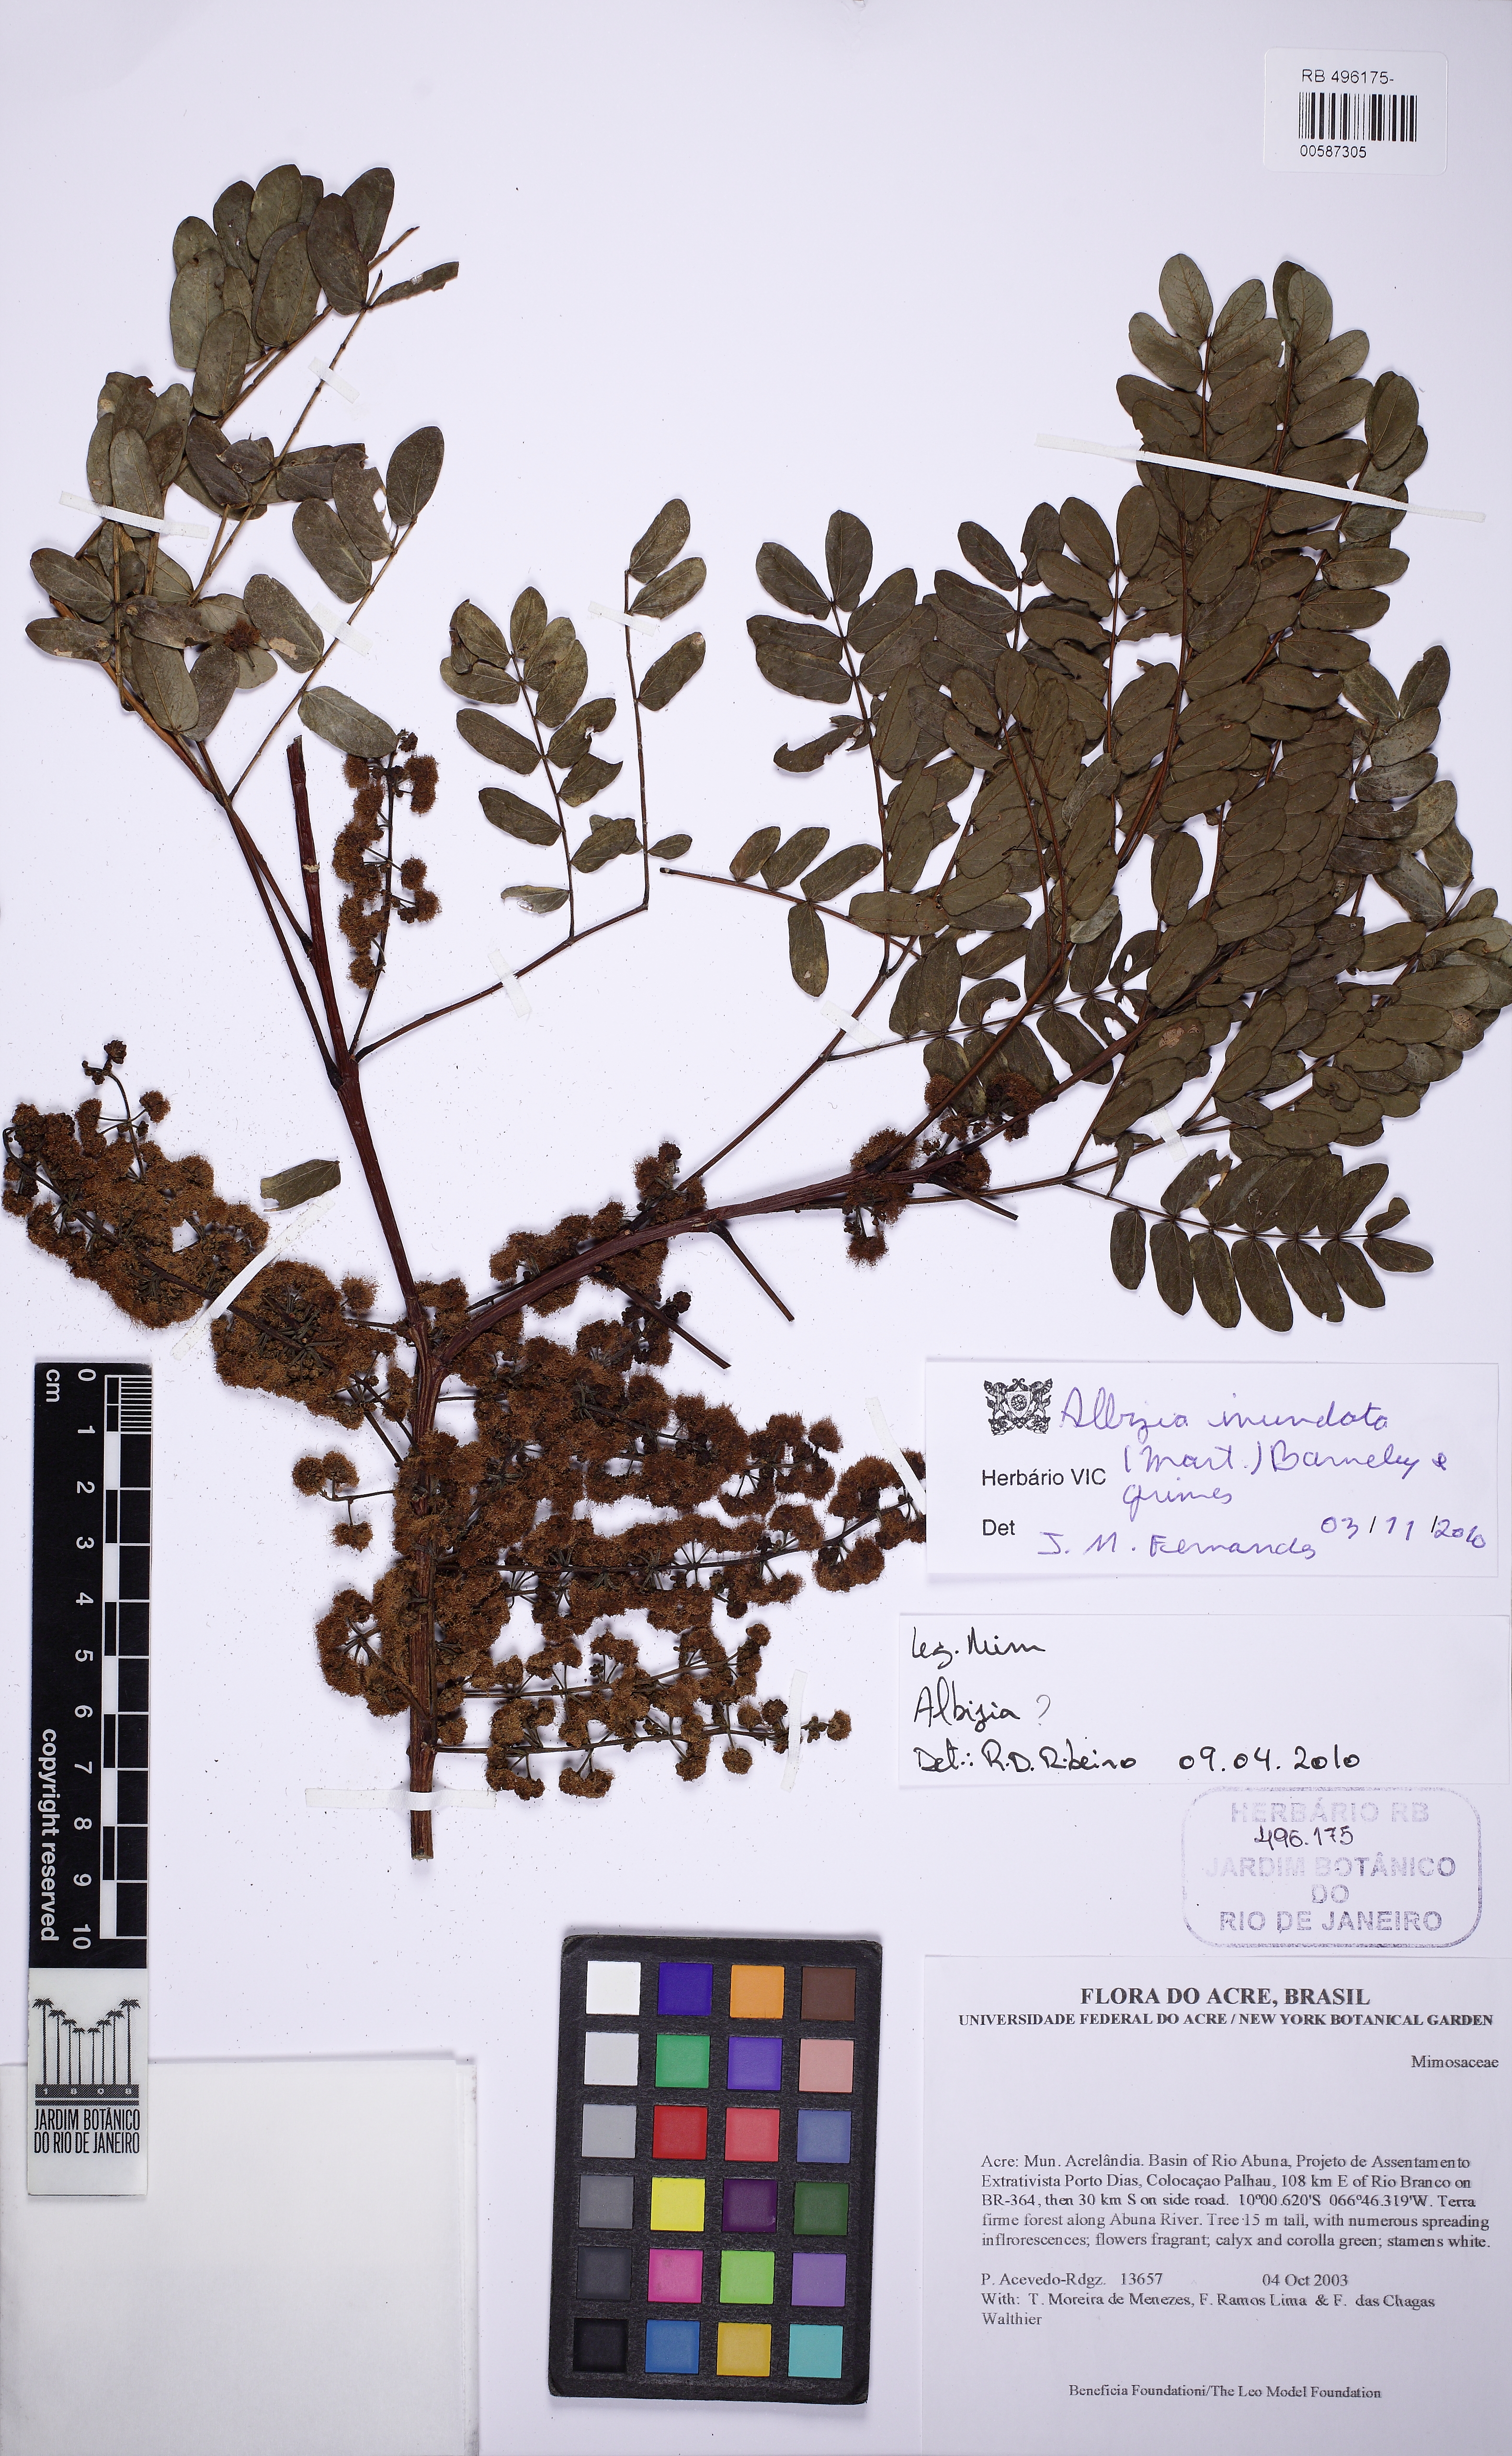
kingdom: Plantae
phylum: Tracheophyta
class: Magnoliopsida
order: Fabales
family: Fabaceae
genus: Albizia
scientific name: Albizia inundata
